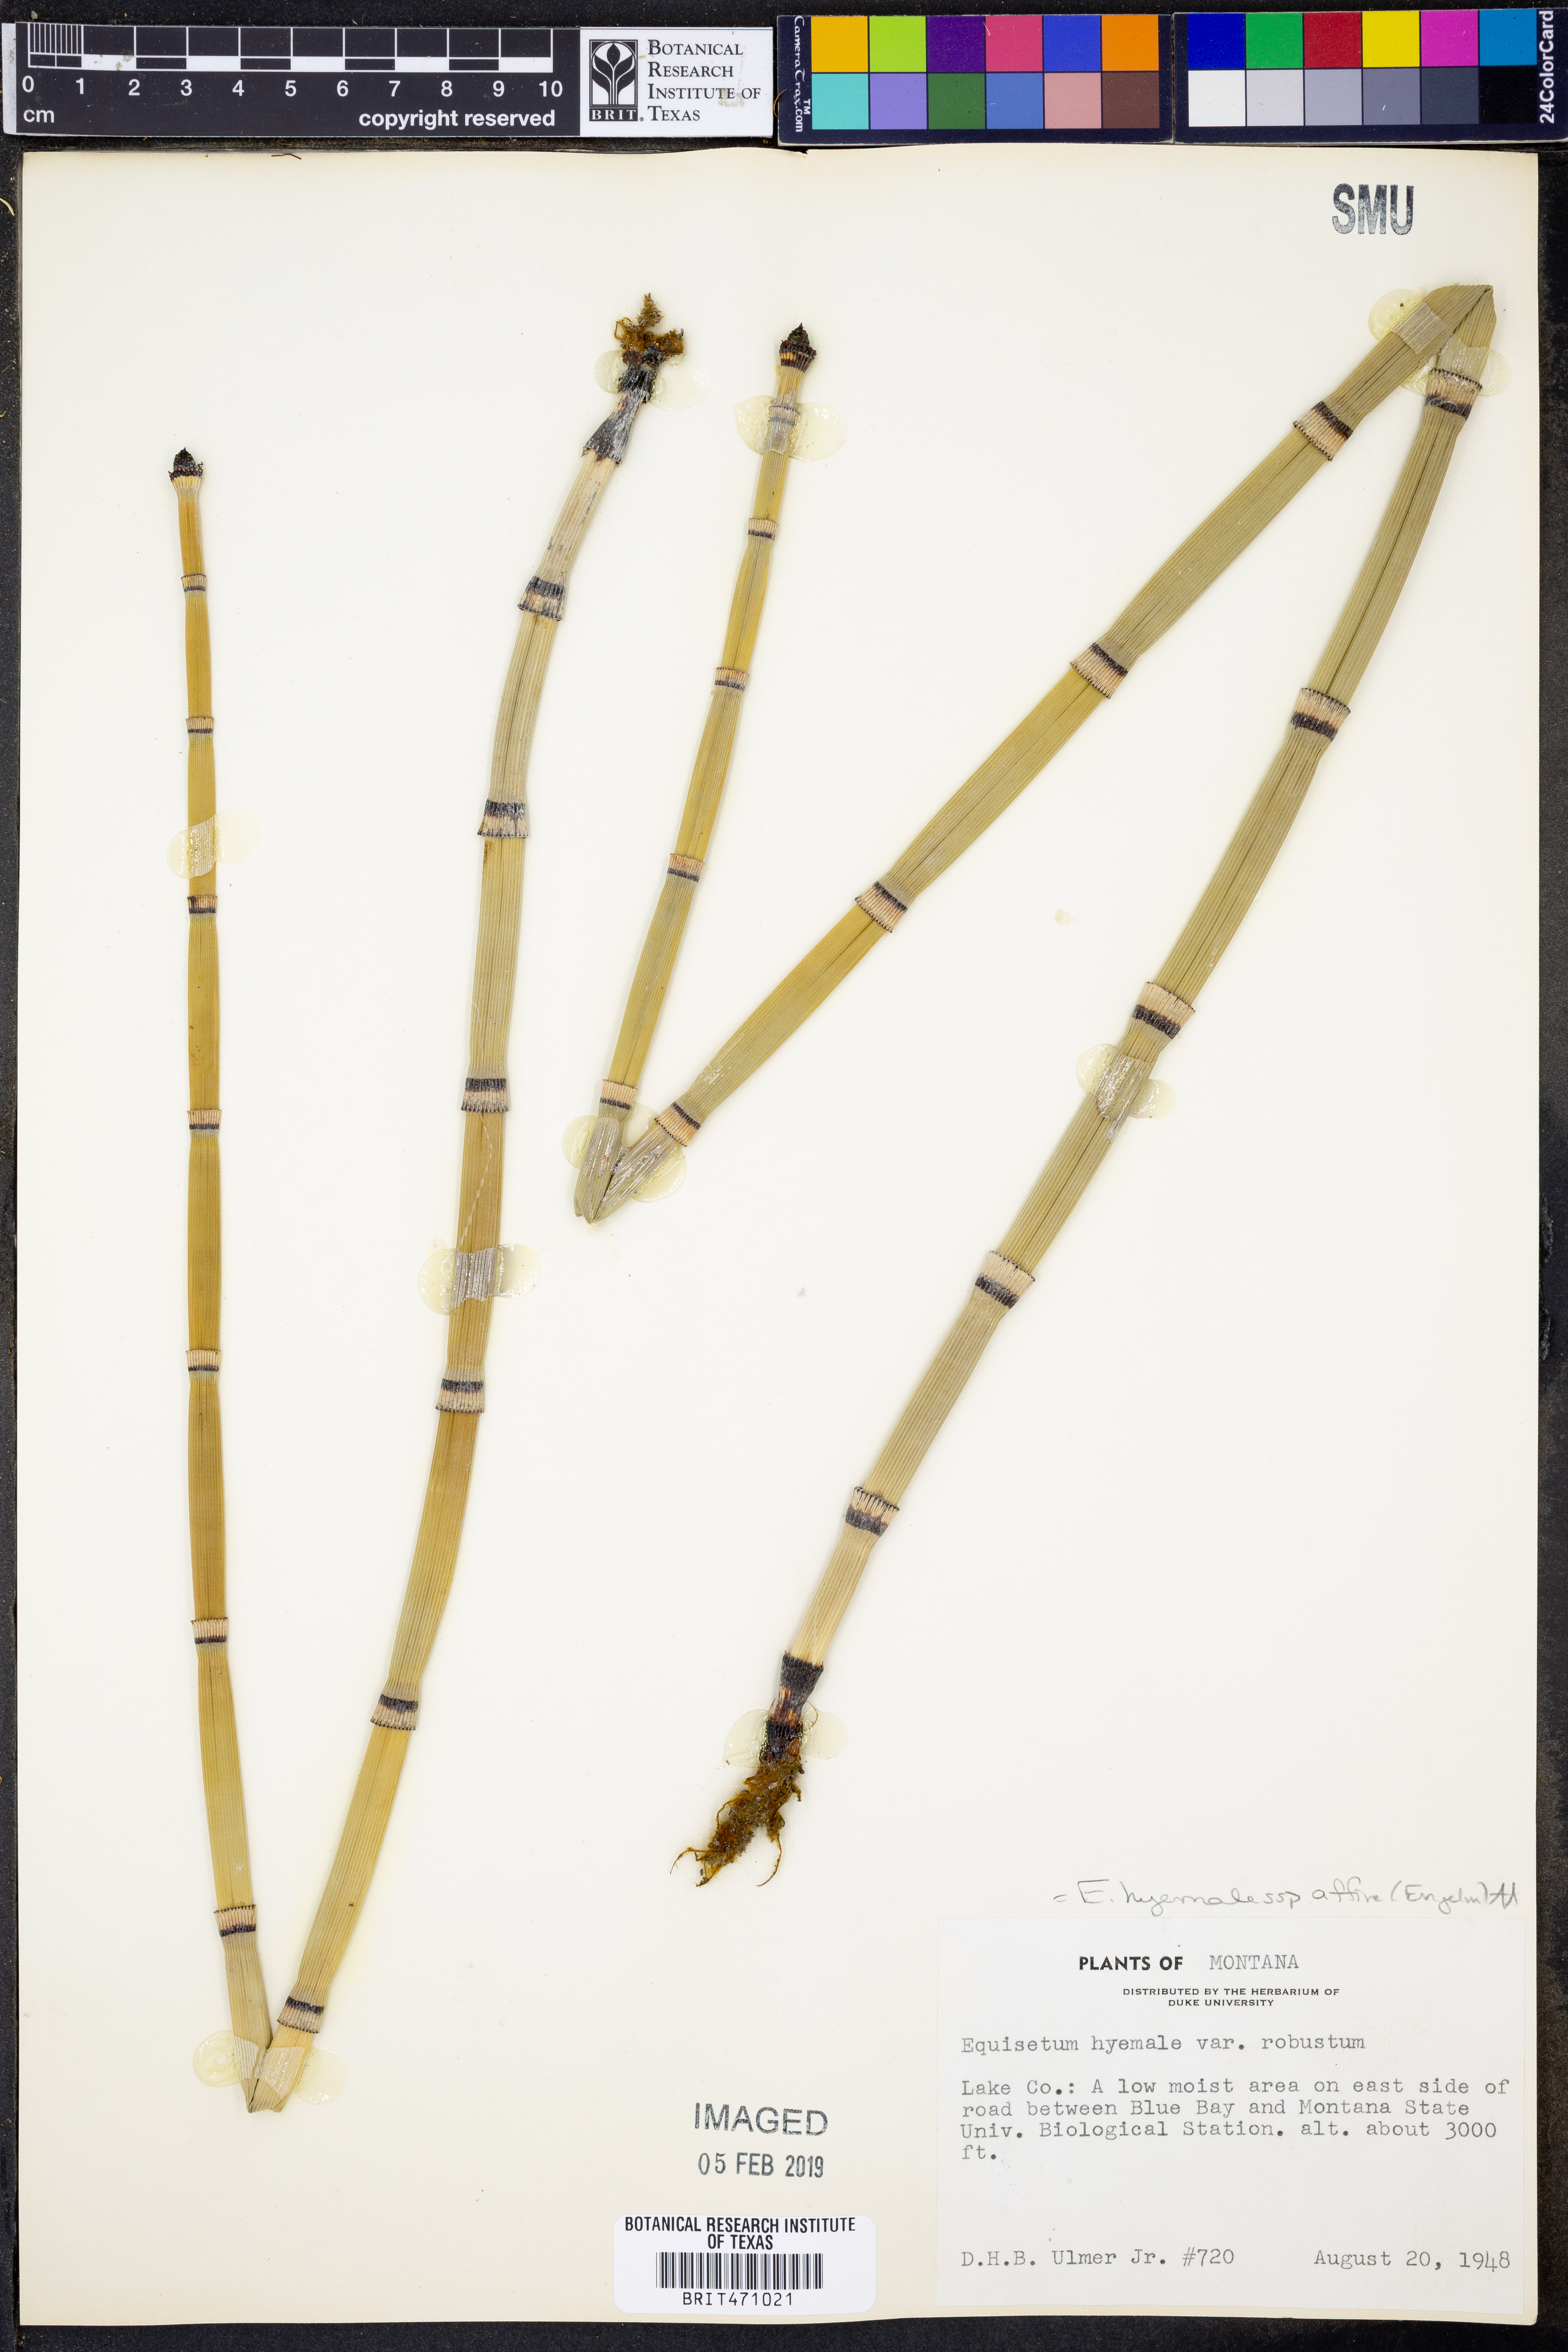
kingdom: Plantae
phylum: Tracheophyta
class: Polypodiopsida
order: Equisetales
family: Equisetaceae
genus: Equisetum
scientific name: Equisetum praealtum
